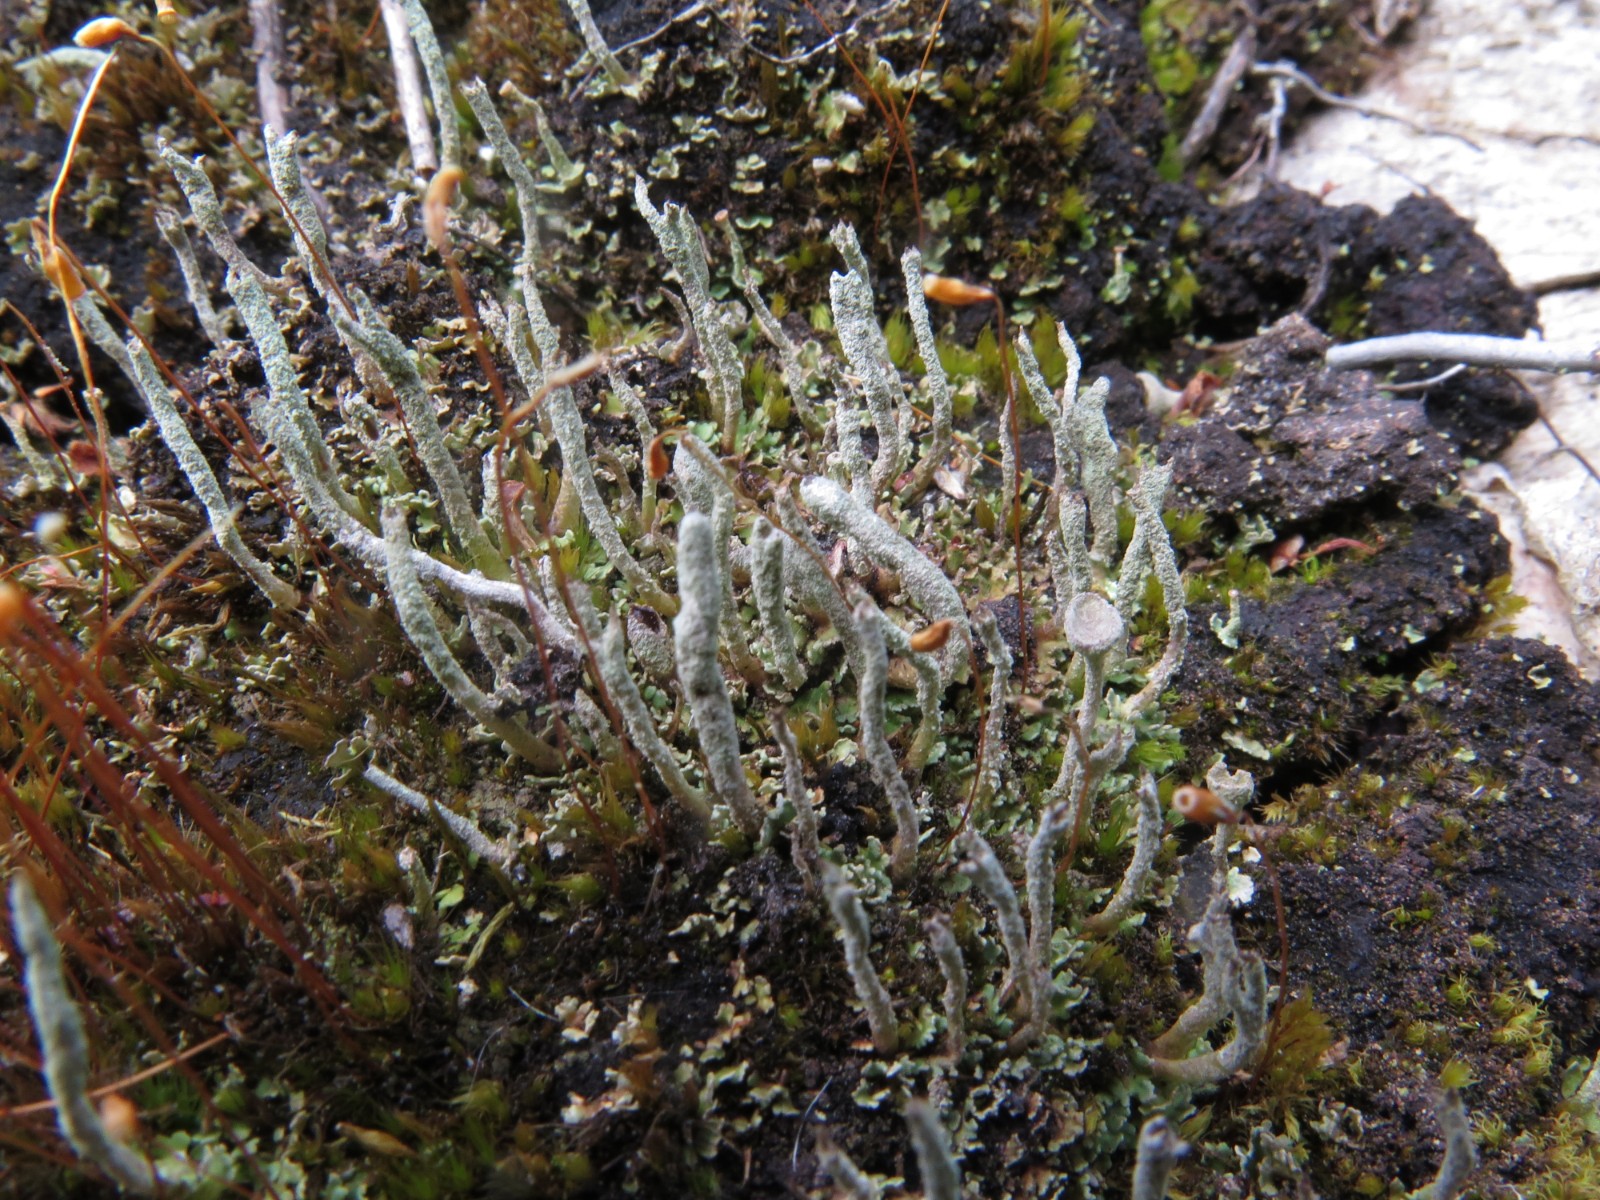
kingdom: Fungi
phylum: Ascomycota
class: Lecanoromycetes
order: Lecanorales
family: Cladoniaceae
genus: Cladonia
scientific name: Cladonia coniocraea
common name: træfods-bægerlav
